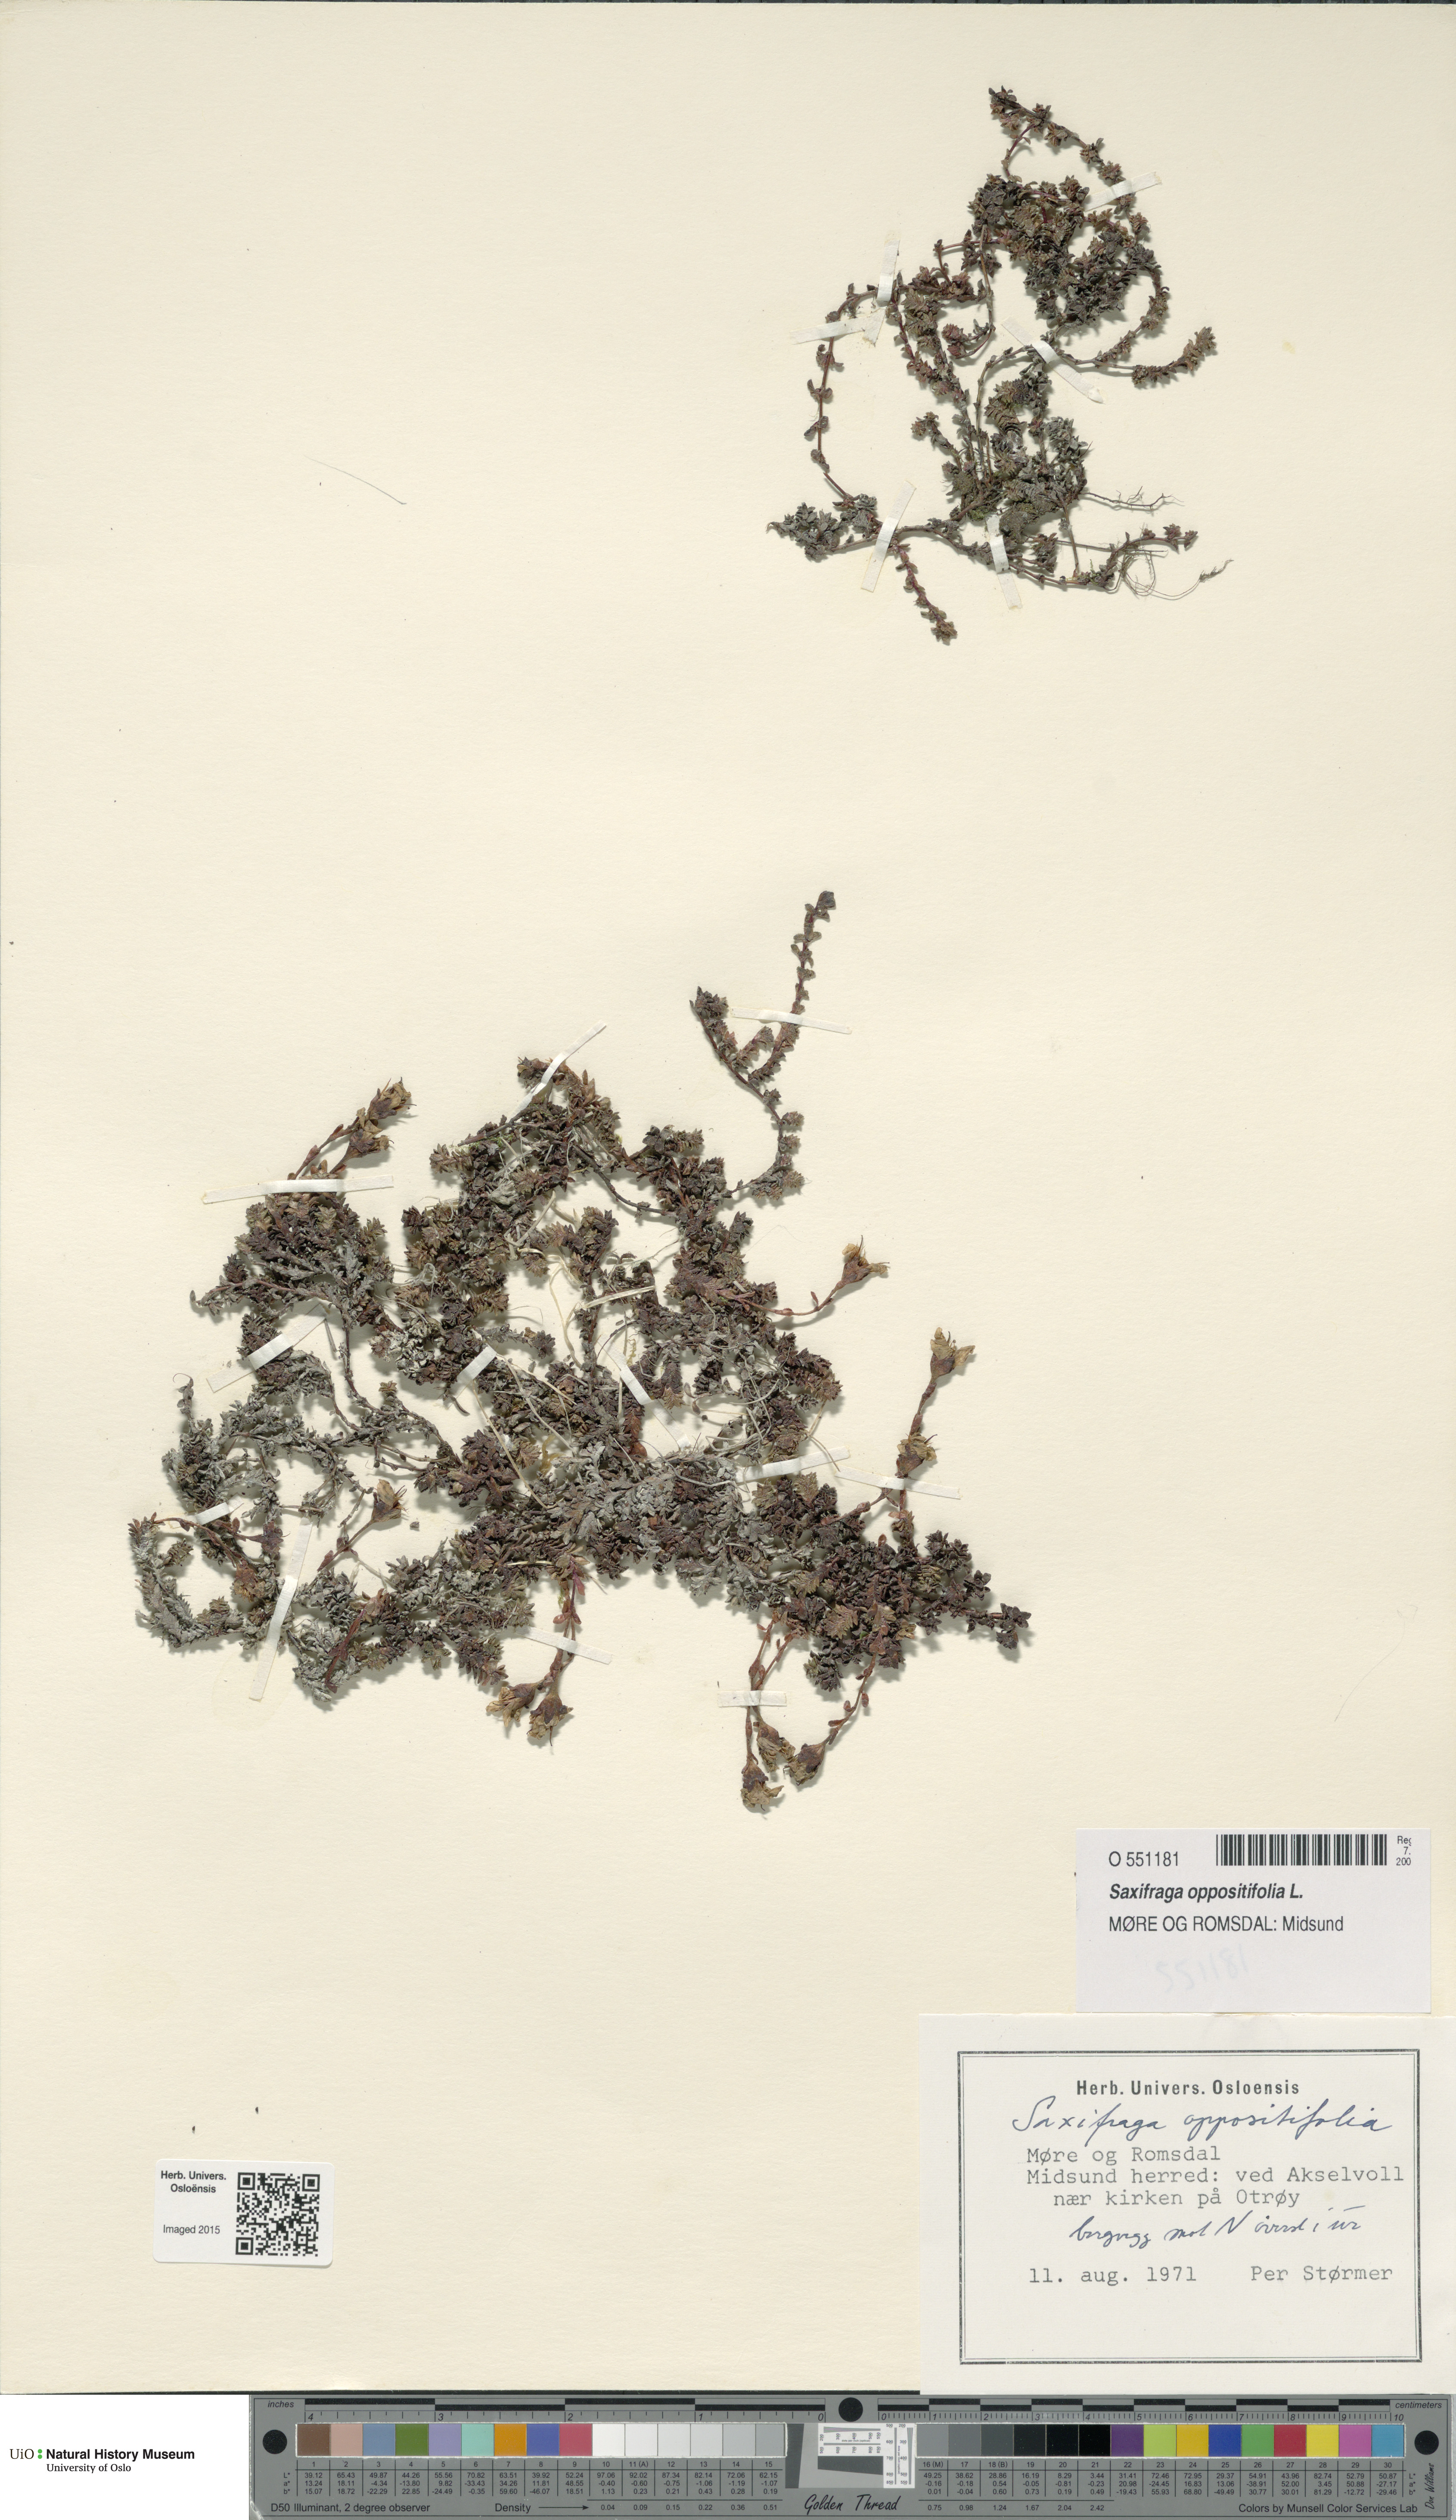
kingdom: Plantae
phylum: Tracheophyta
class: Magnoliopsida
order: Saxifragales
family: Saxifragaceae
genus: Saxifraga
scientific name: Saxifraga oppositifolia
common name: Purple saxifrage
